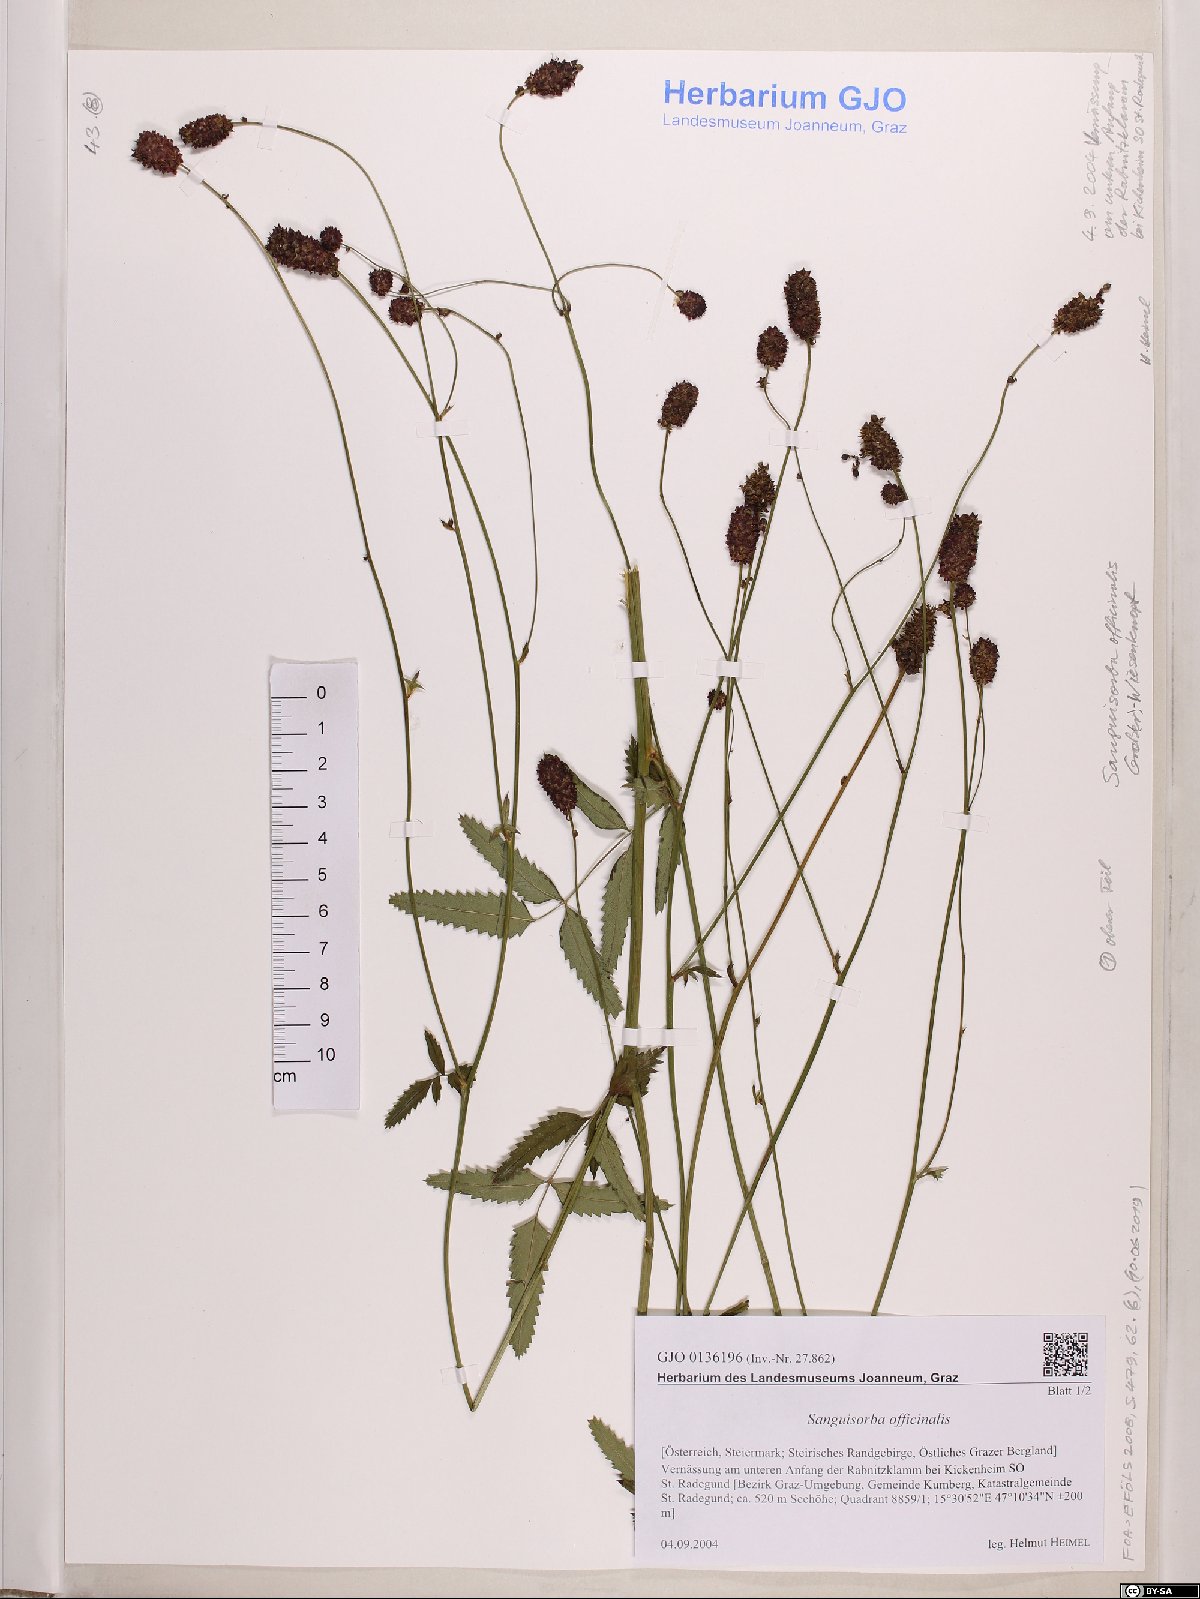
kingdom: Plantae
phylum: Tracheophyta
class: Magnoliopsida
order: Rosales
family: Rosaceae
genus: Sanguisorba
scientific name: Sanguisorba officinalis
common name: Great burnet
